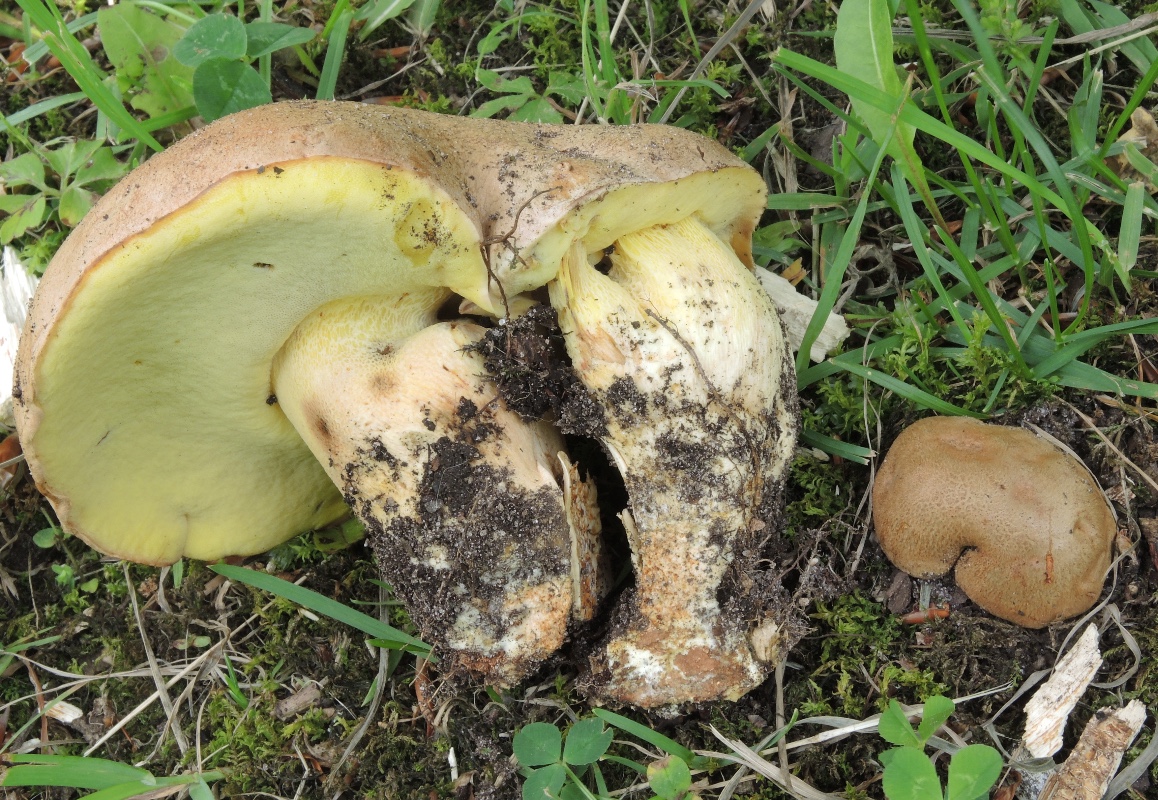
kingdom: Fungi
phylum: Basidiomycota
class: Agaricomycetes
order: Boletales
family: Boletaceae
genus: Butyriboletus
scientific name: Butyriboletus appendiculatus
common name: tenstokket rørhat
